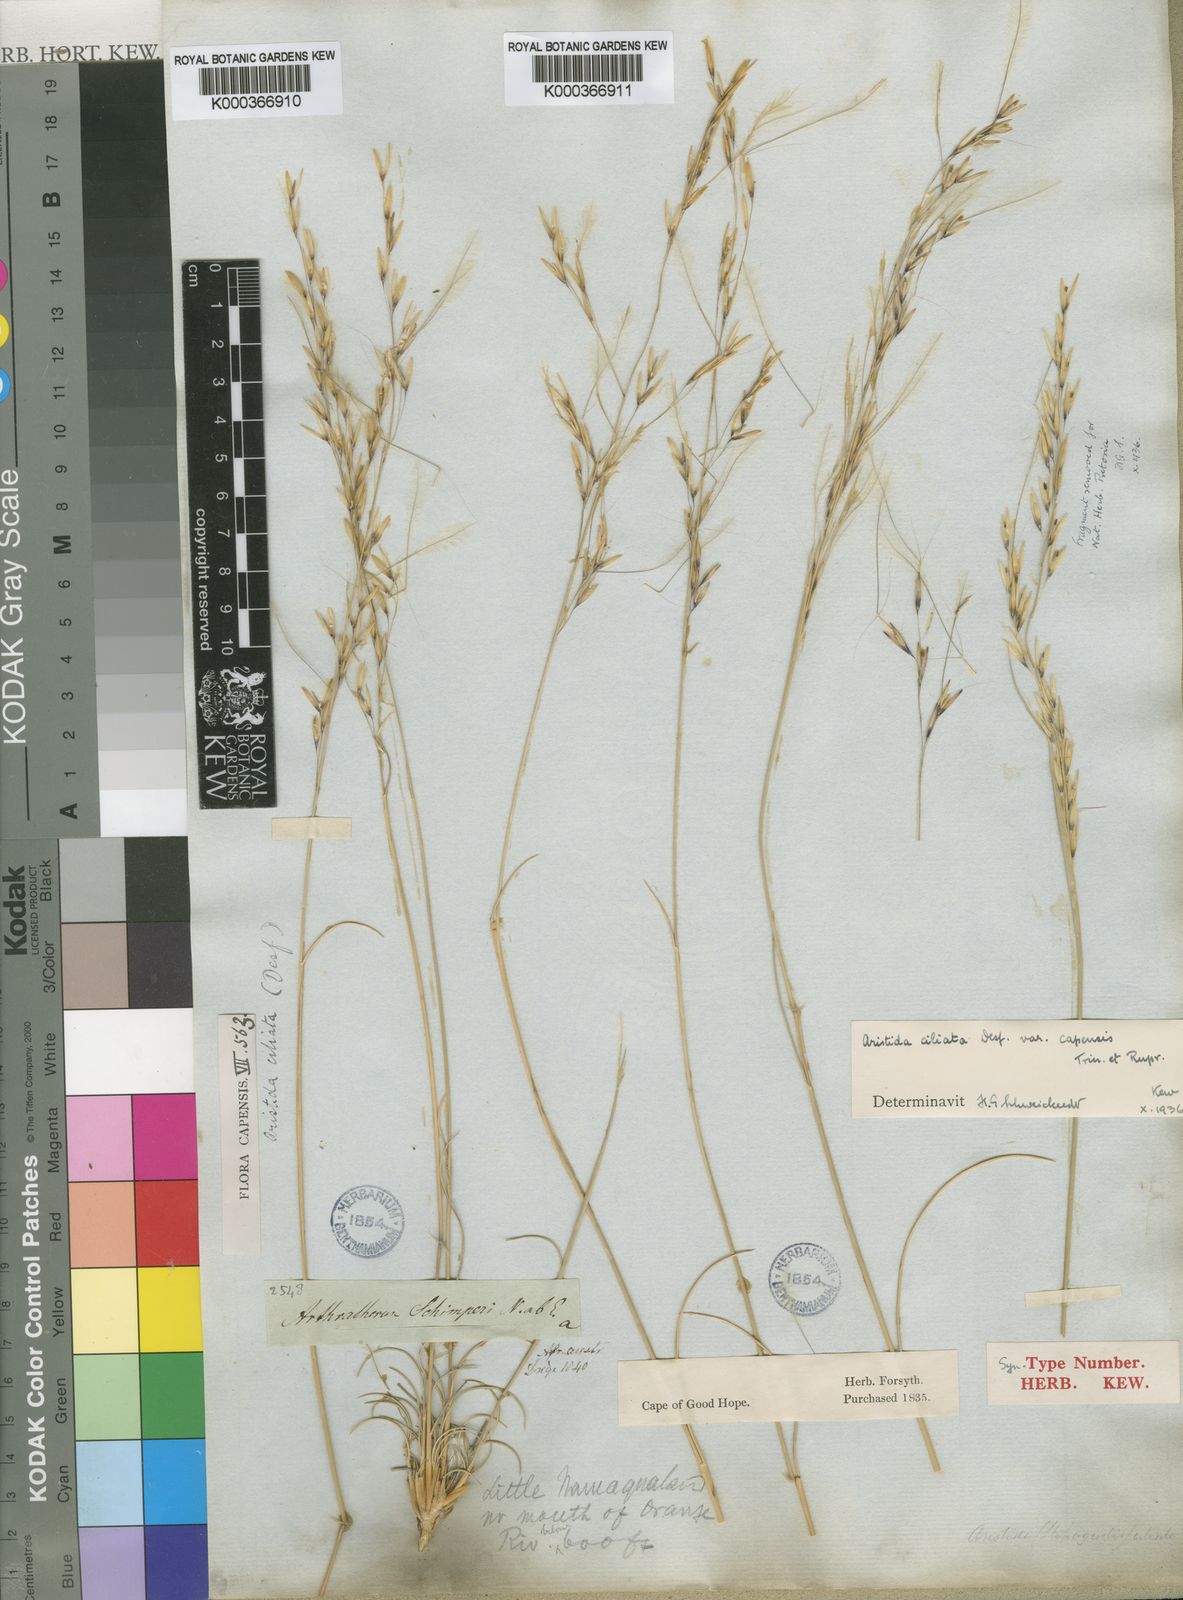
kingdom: Plantae
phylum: Tracheophyta
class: Liliopsida
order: Poales
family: Poaceae
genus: Stipagrostis
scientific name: Stipagrostis ciliata
